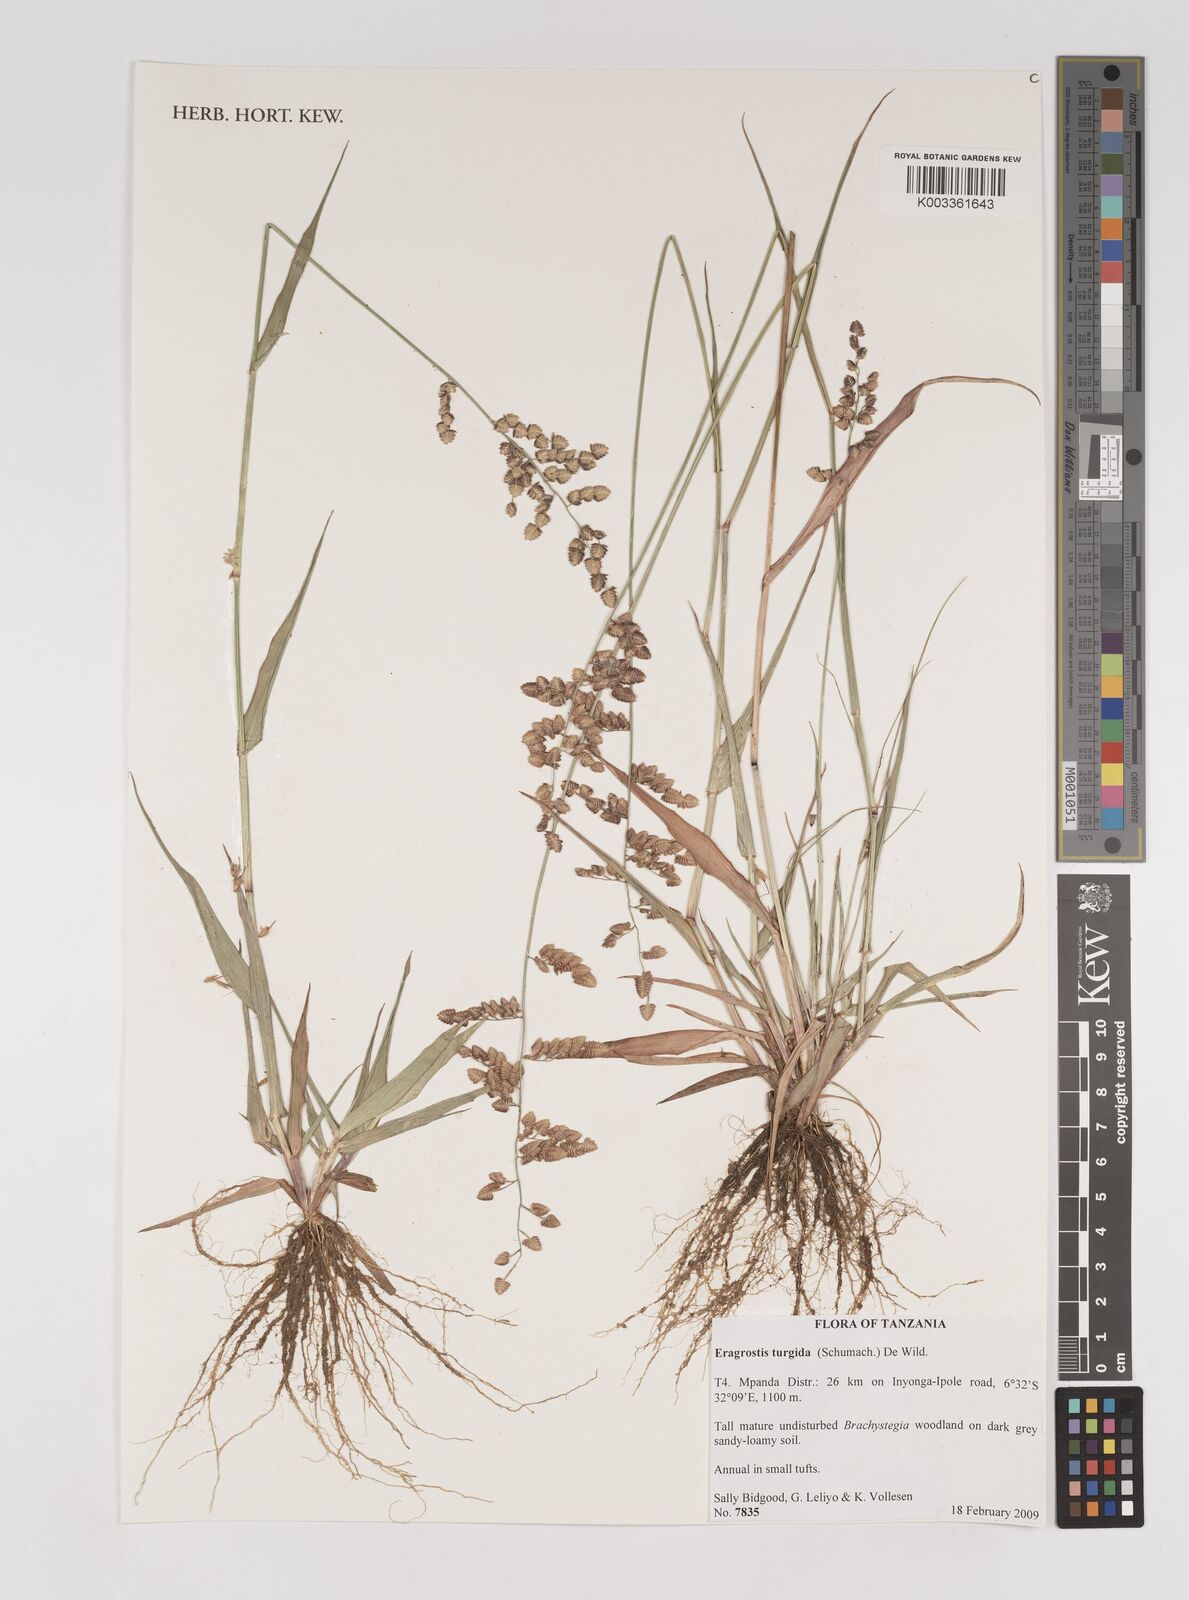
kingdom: Plantae
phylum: Tracheophyta
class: Liliopsida
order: Poales
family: Poaceae
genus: Eragrostis
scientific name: Eragrostis turgida
